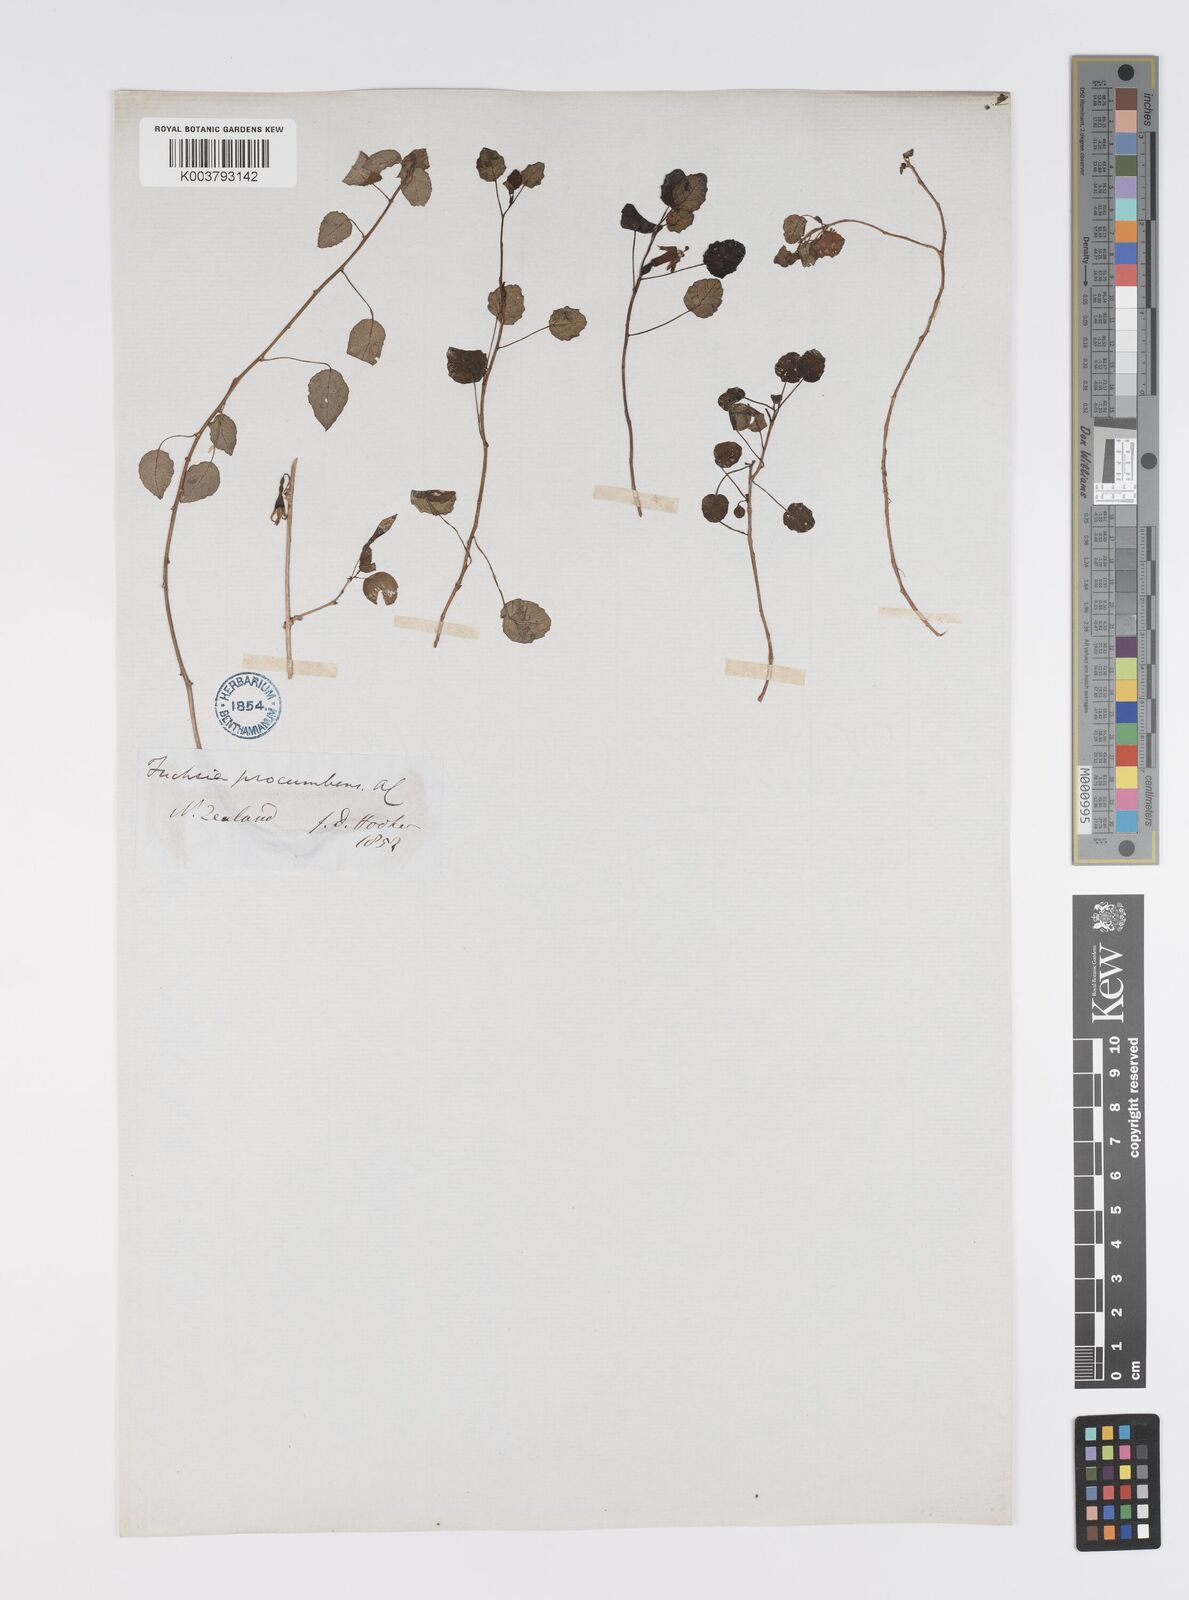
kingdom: Plantae
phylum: Tracheophyta
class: Magnoliopsida
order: Myrtales
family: Onagraceae
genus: Fuchsia
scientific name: Fuchsia procumbens
